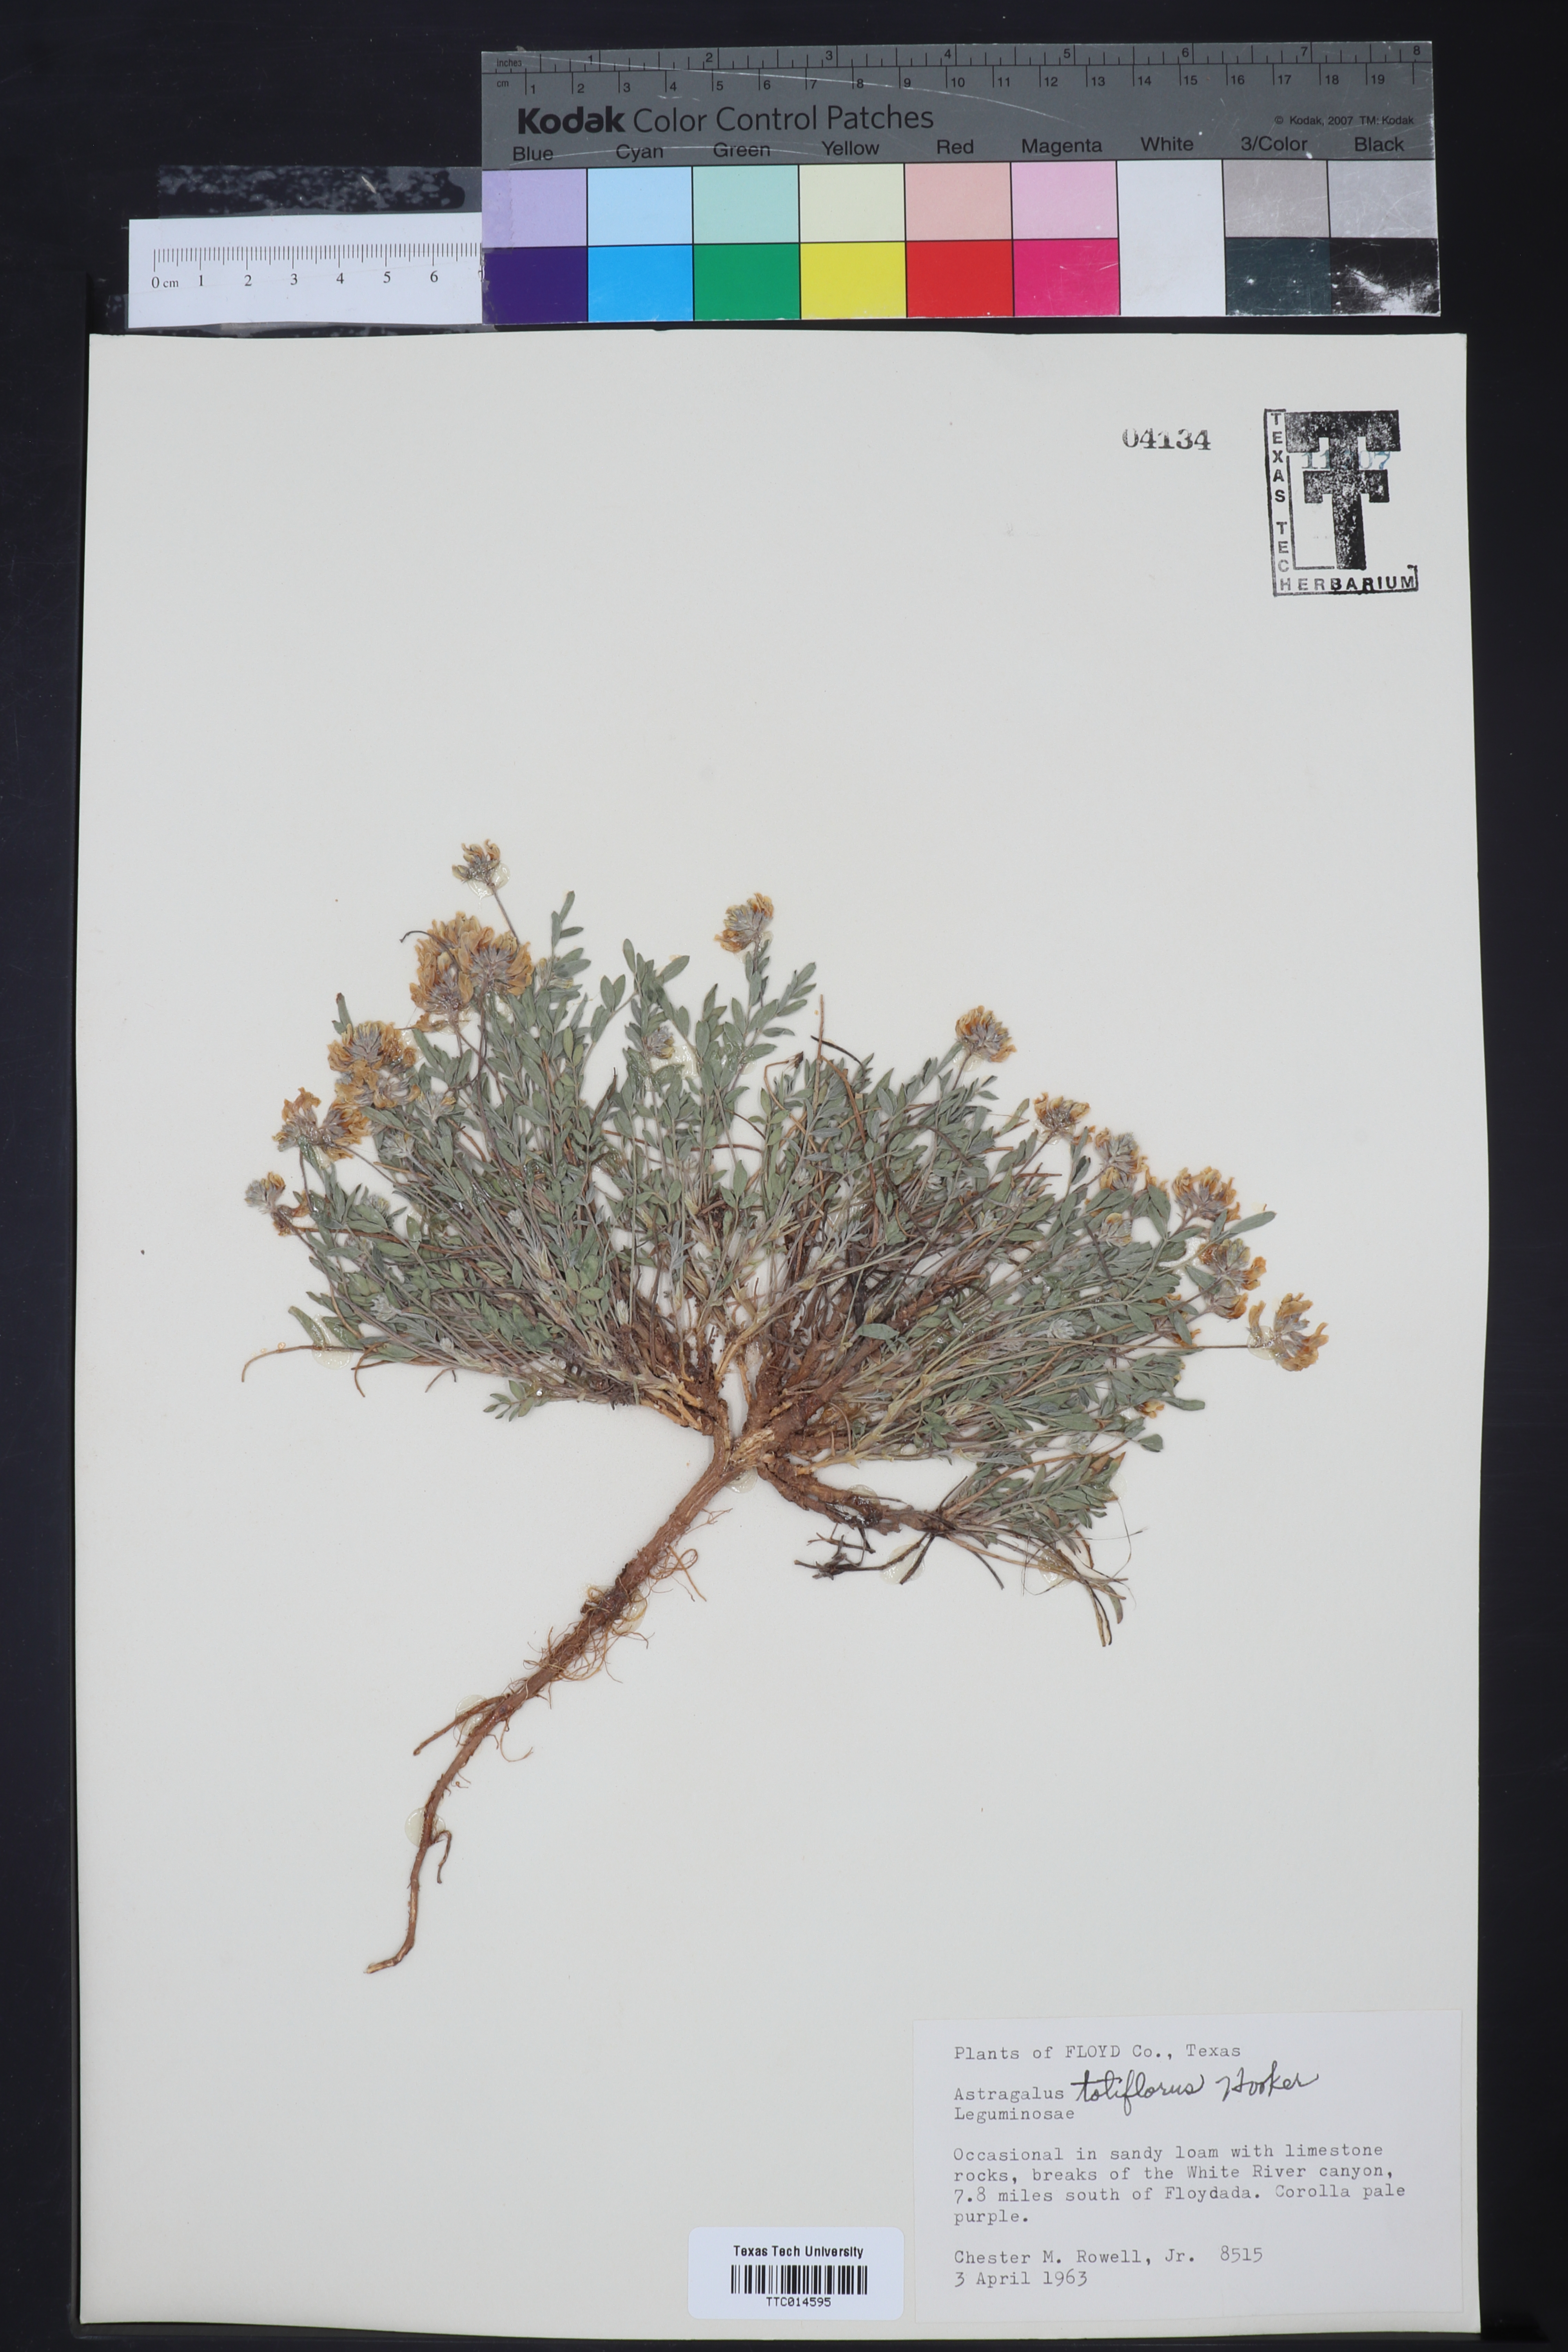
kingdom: Plantae
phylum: Tracheophyta
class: Magnoliopsida
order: Fabales
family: Fabaceae
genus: Astragalus
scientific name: Astragalus lotiflorus
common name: Lotus milk-vetch
